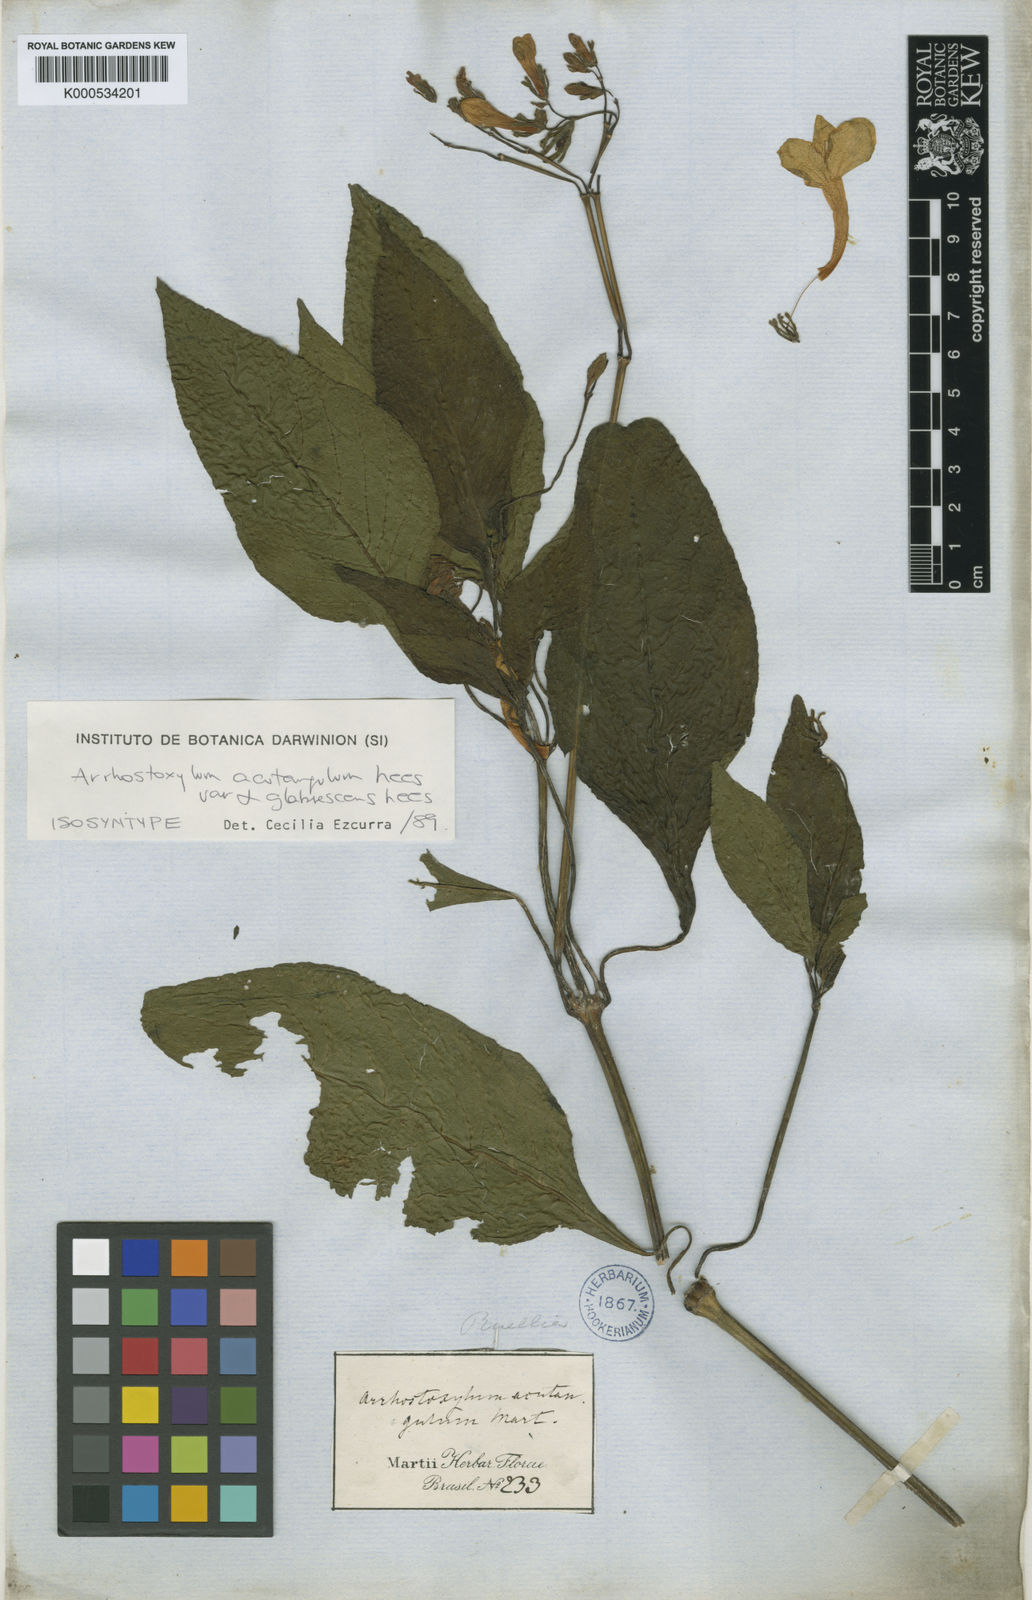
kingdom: Plantae
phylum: Tracheophyta
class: Magnoliopsida
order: Lamiales
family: Acanthaceae
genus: Ruellia
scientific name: Ruellia acutangula
